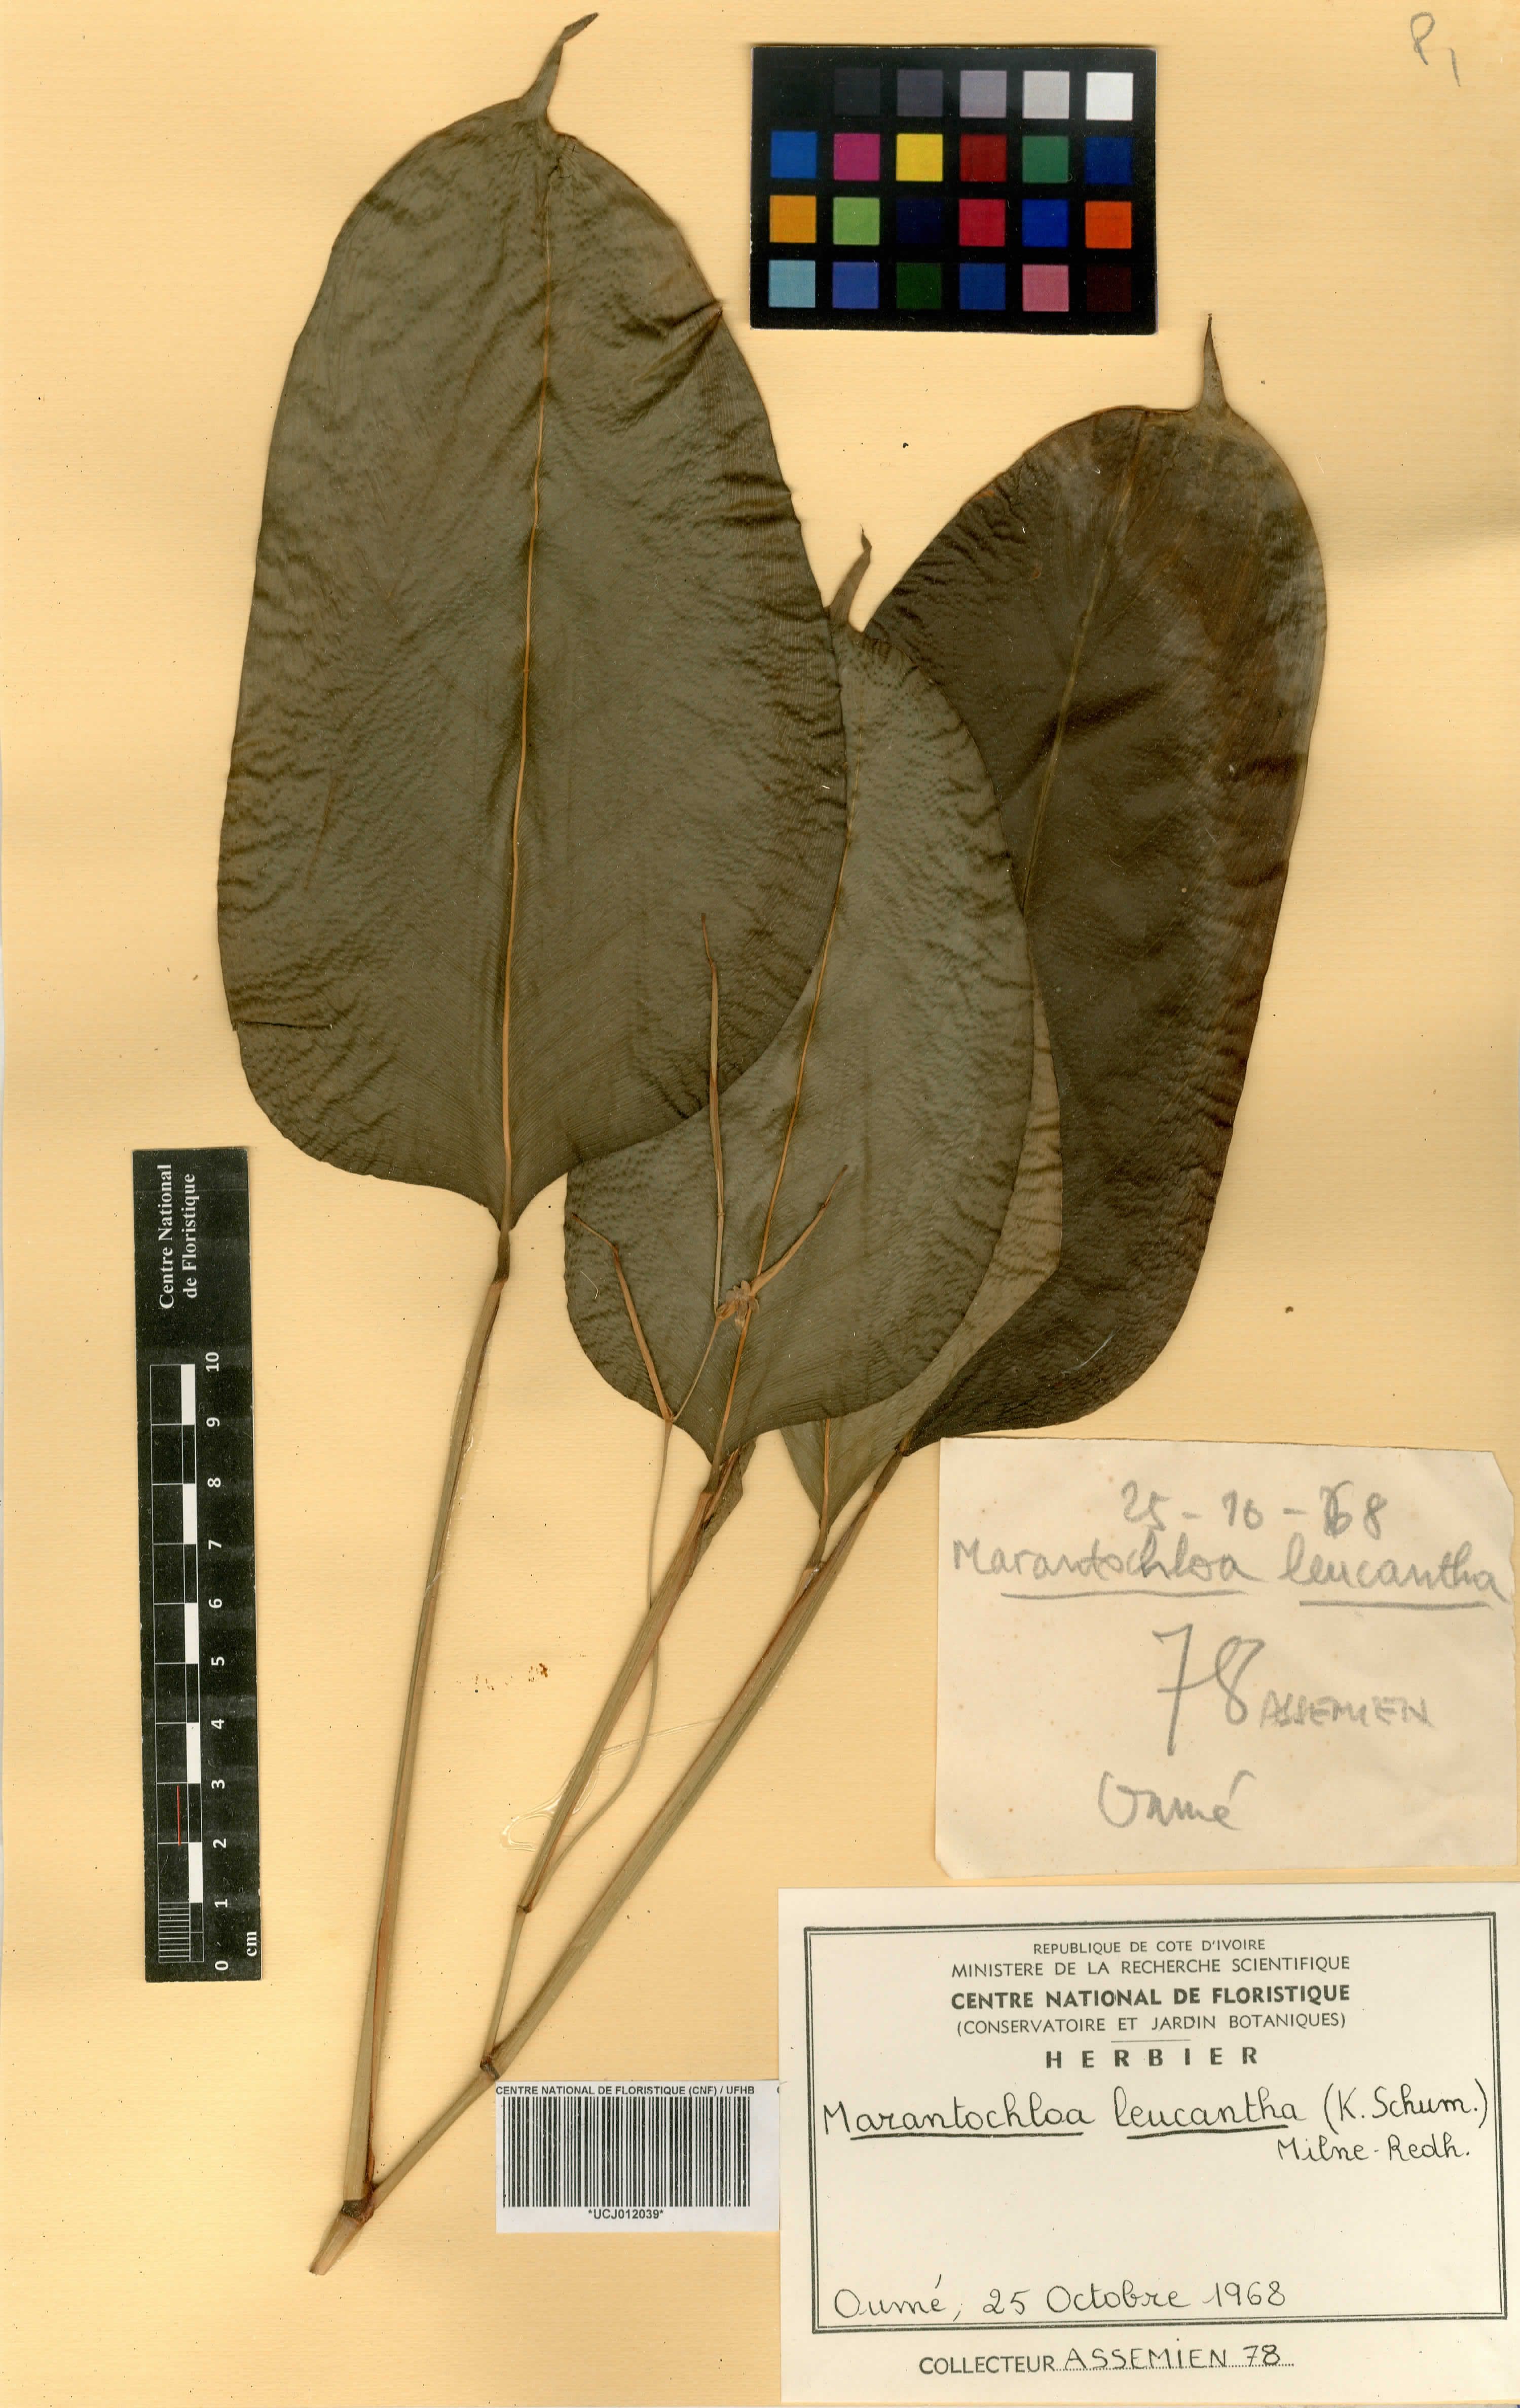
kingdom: Plantae
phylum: Tracheophyta
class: Liliopsida
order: Zingiberales
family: Marantaceae
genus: Marantochloa
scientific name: Marantochloa leucantha
